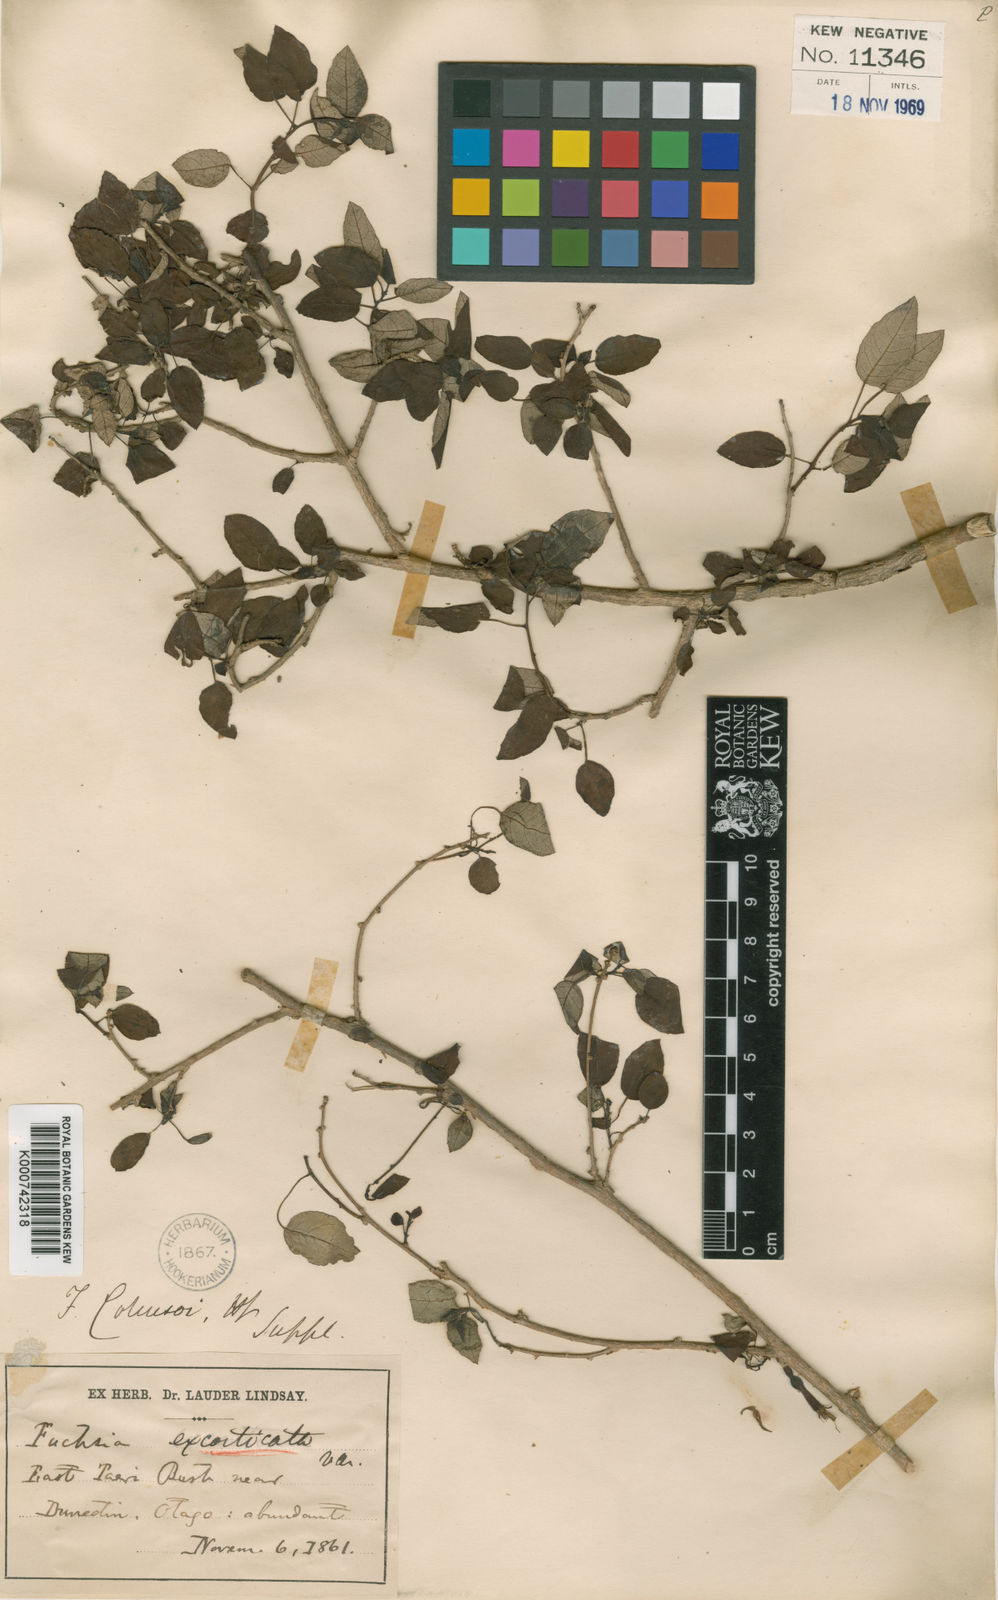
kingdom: Plantae
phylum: Tracheophyta
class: Magnoliopsida
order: Myrtales
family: Onagraceae
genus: Fuchsia
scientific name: Fuchsia colensoi
